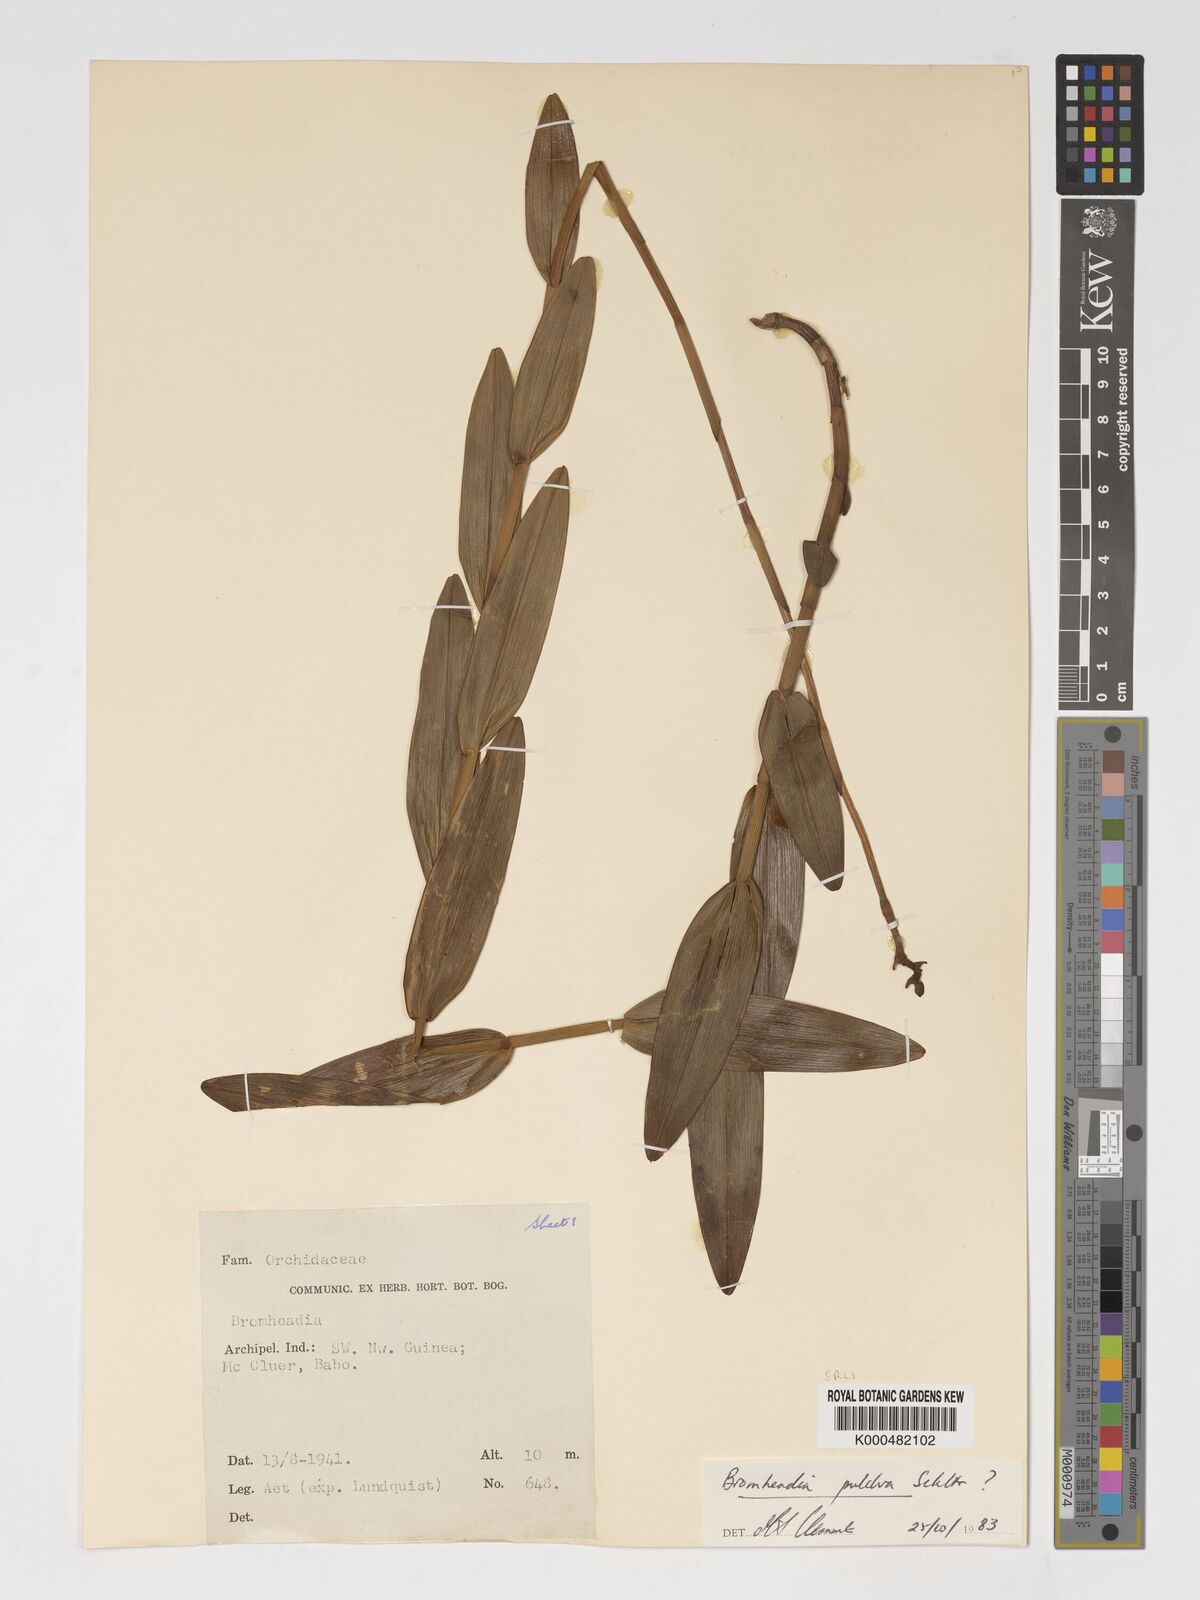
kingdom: Plantae
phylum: Tracheophyta
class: Liliopsida
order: Asparagales
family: Orchidaceae
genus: Bromheadia
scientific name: Bromheadia finlaysoniana
